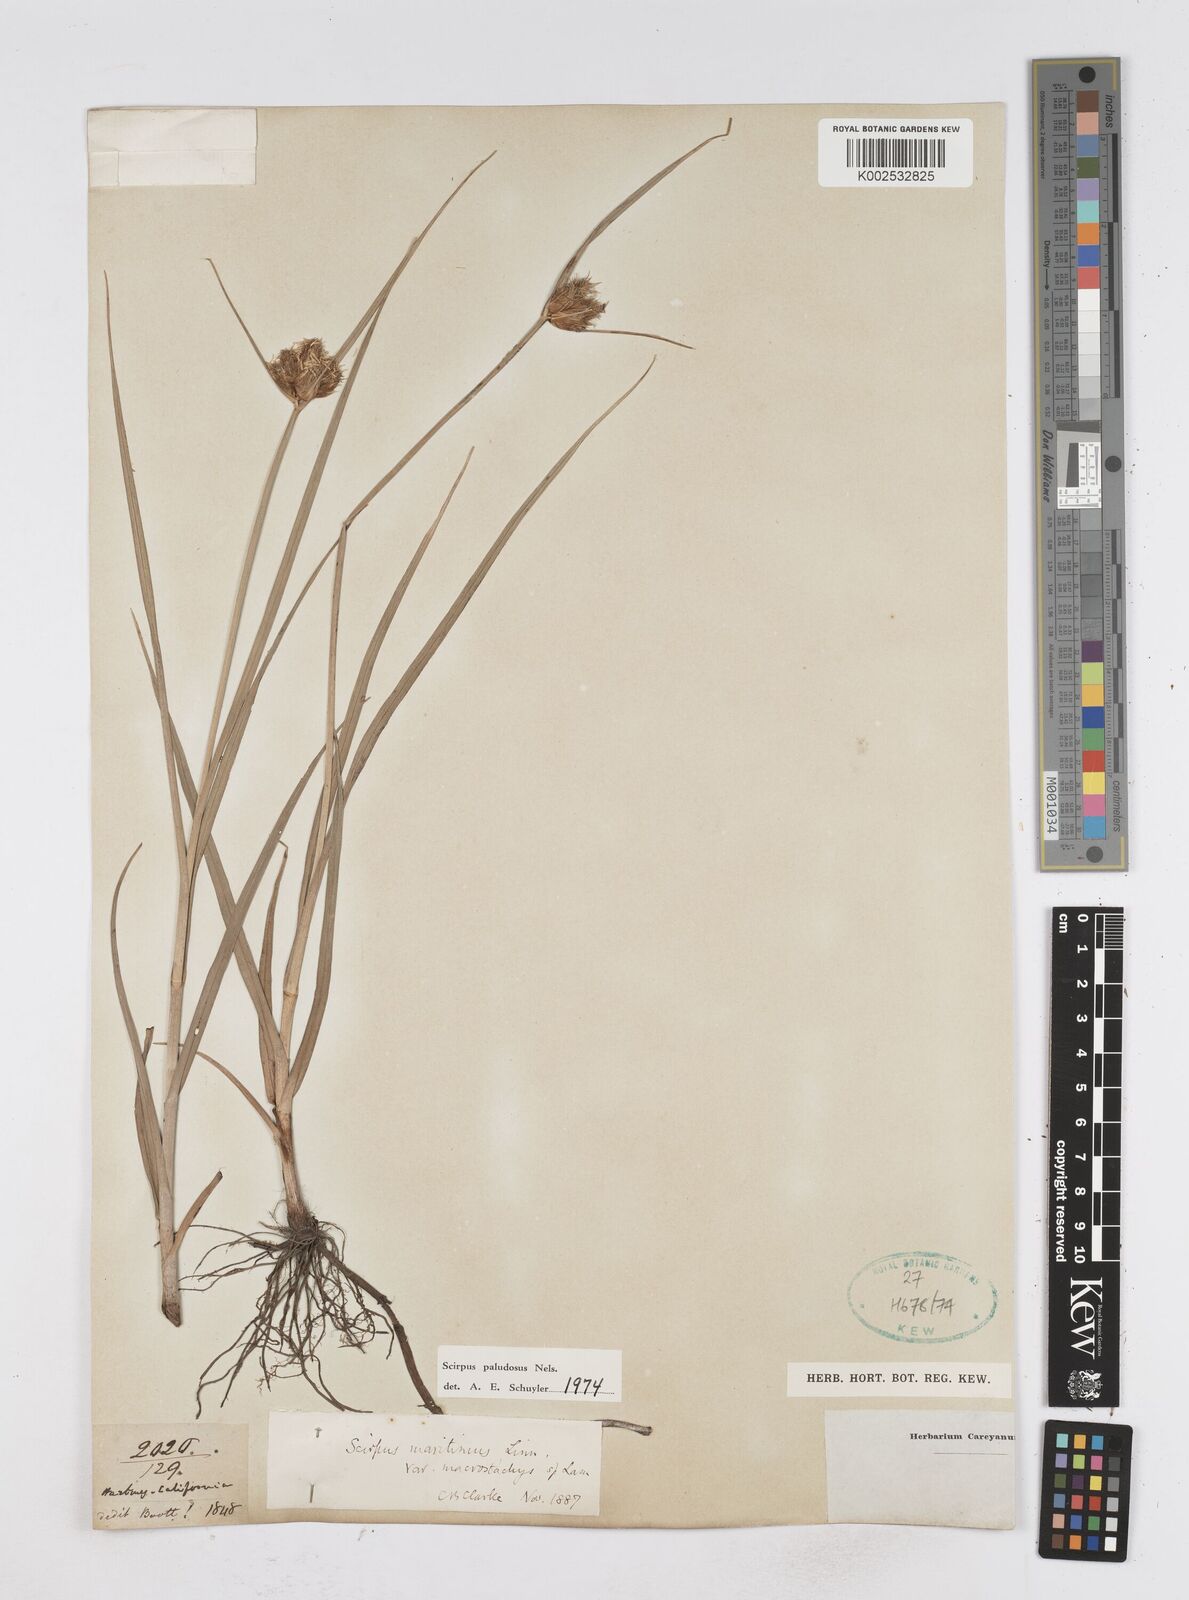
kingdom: Plantae
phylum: Tracheophyta
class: Liliopsida
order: Poales
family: Cyperaceae
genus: Bolboschoenus
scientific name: Bolboschoenus maritimus
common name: Sea club-rush
